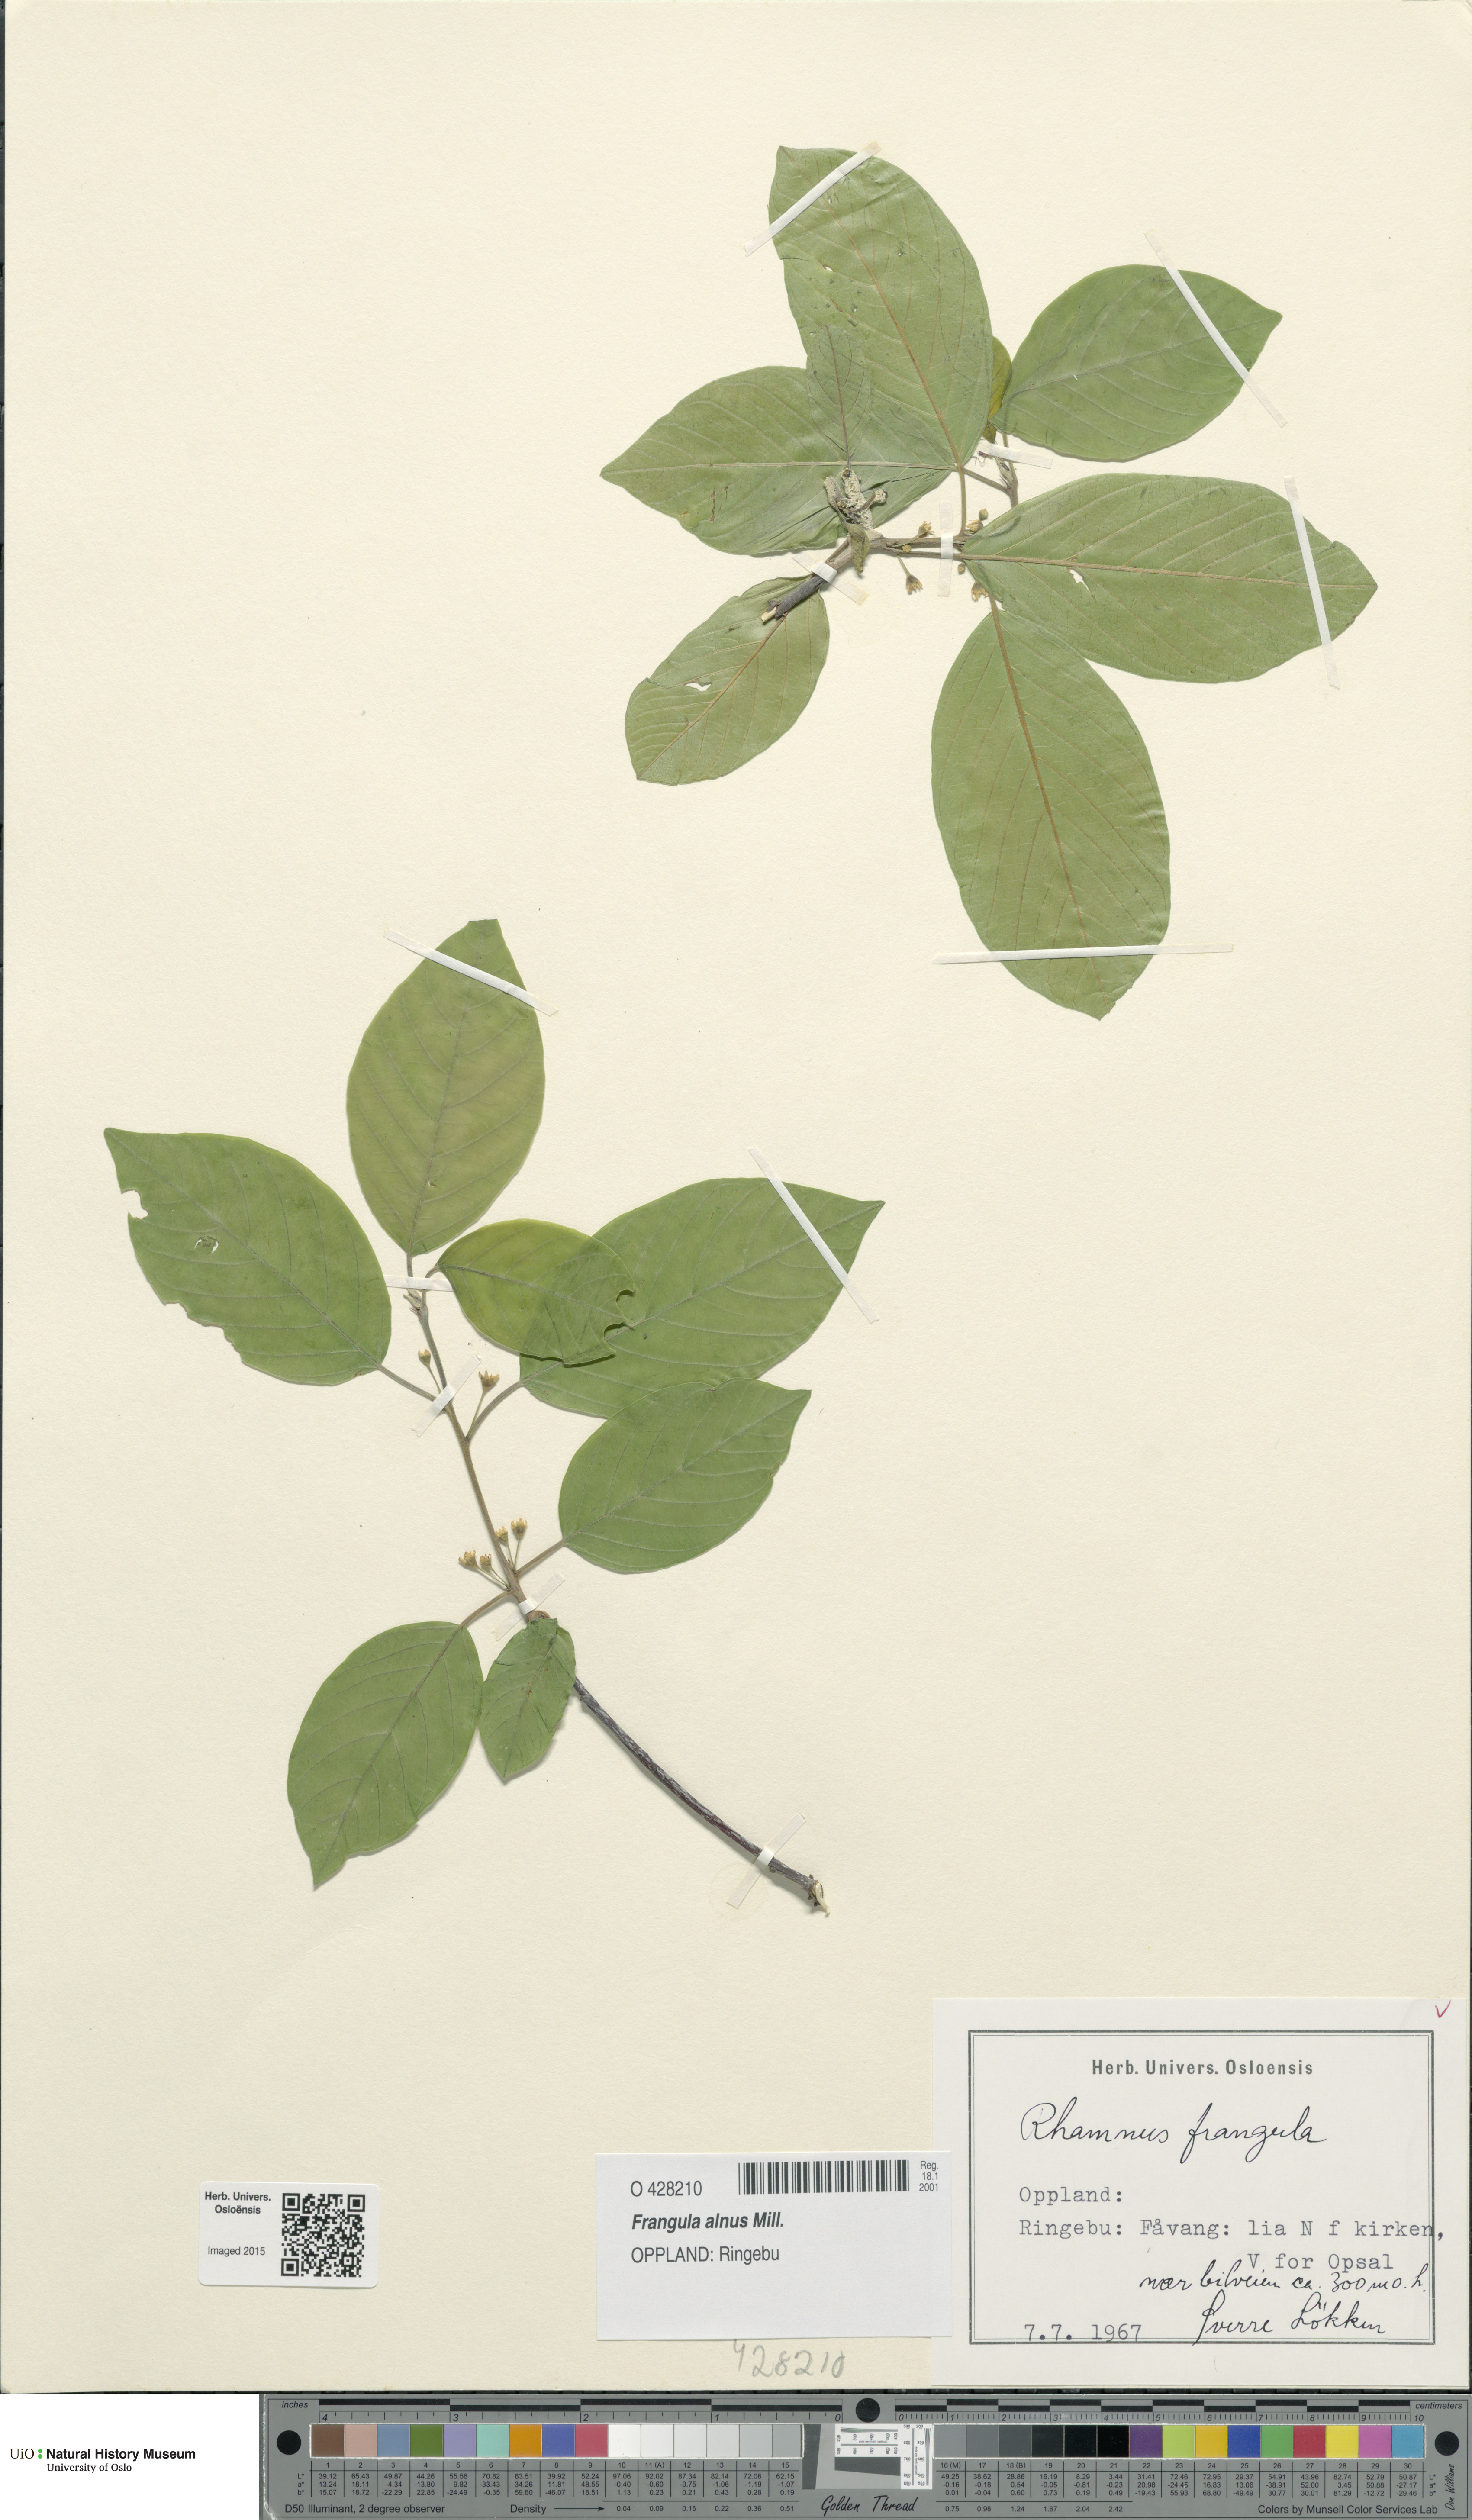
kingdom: Plantae
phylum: Tracheophyta
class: Magnoliopsida
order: Rosales
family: Rhamnaceae
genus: Frangula
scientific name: Frangula alnus
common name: Alder buckthorn
